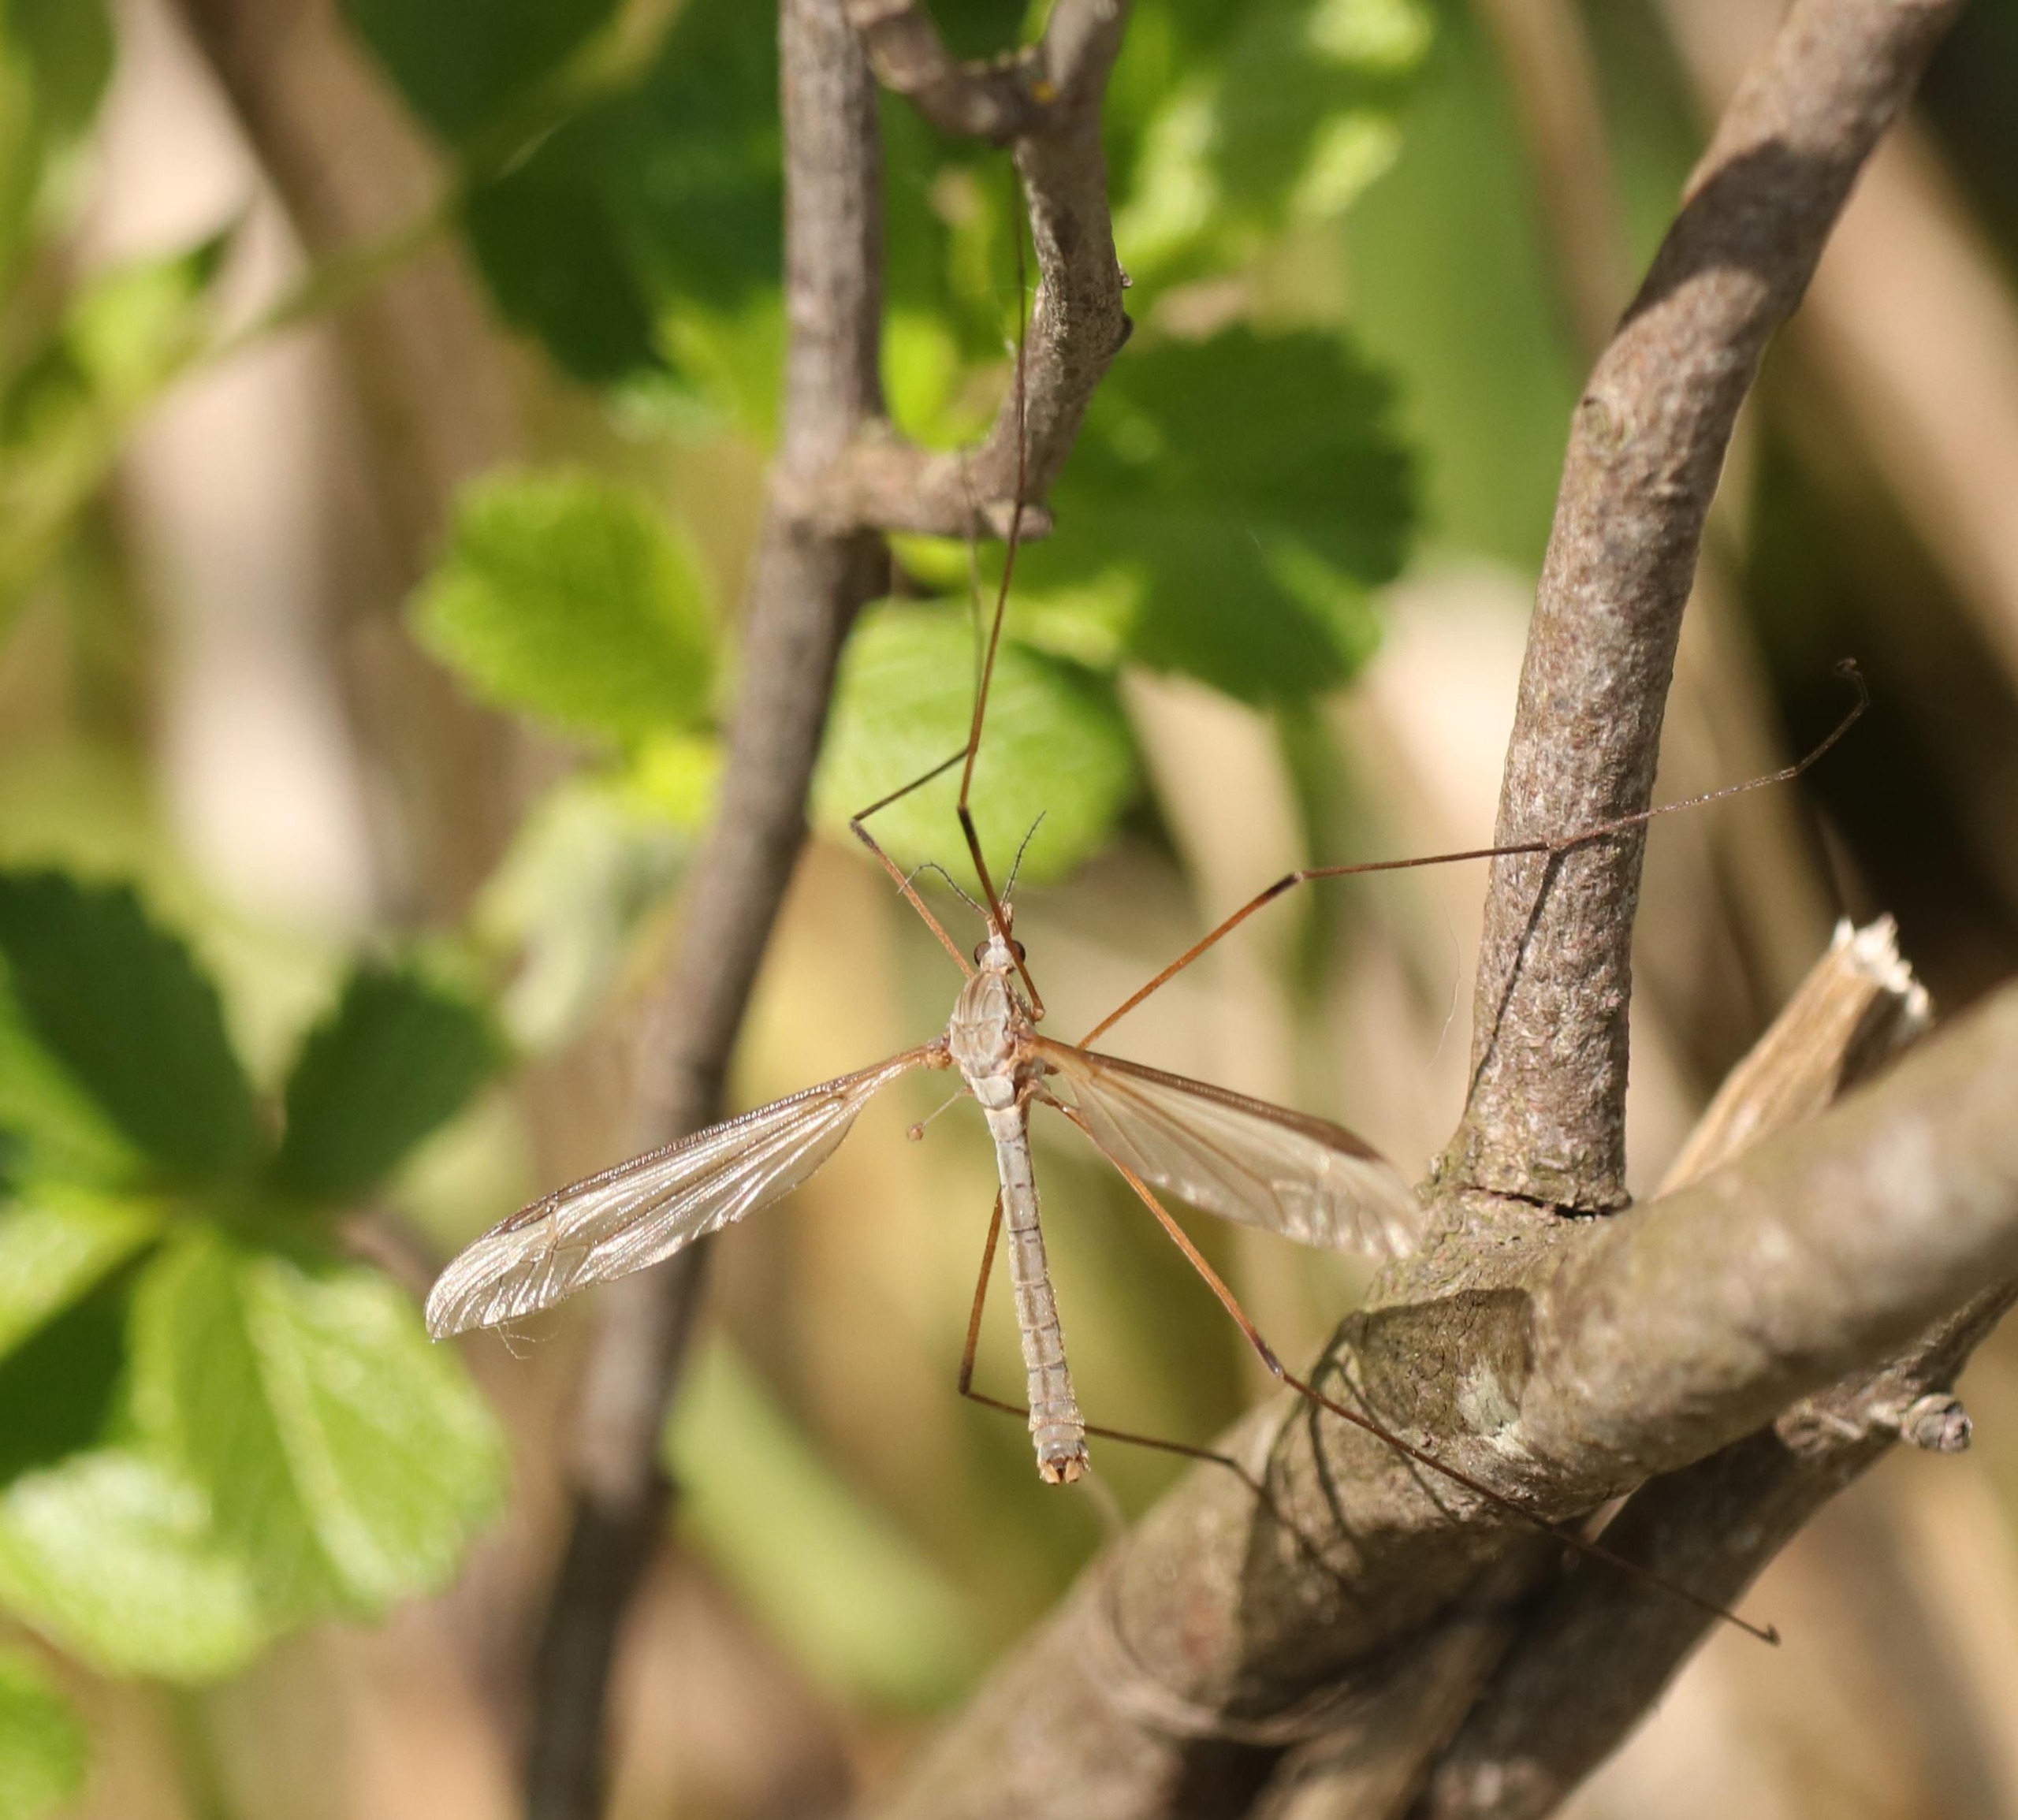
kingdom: Animalia
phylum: Arthropoda
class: Insecta
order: Diptera
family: Tipulidae
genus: Tipula
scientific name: Tipula oleracea
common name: Kålstankelben
